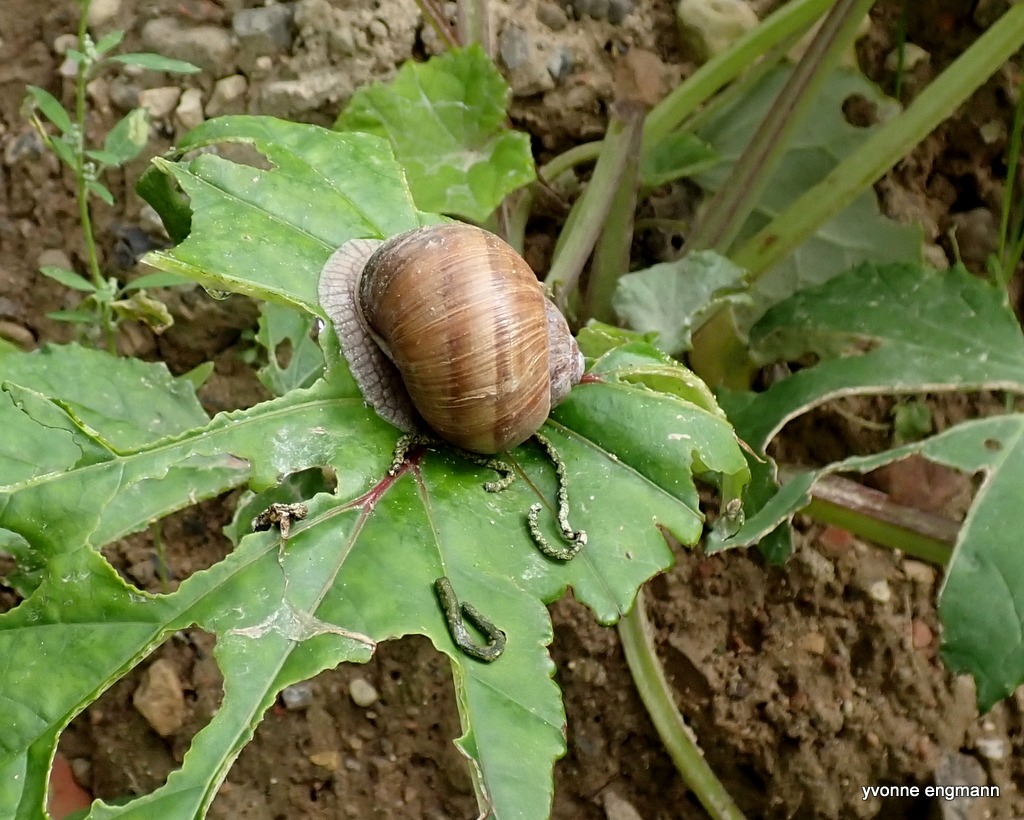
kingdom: Animalia
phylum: Mollusca
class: Gastropoda
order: Stylommatophora
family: Helicidae
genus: Helix
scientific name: Helix pomatia
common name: Vinbjergsnegl
